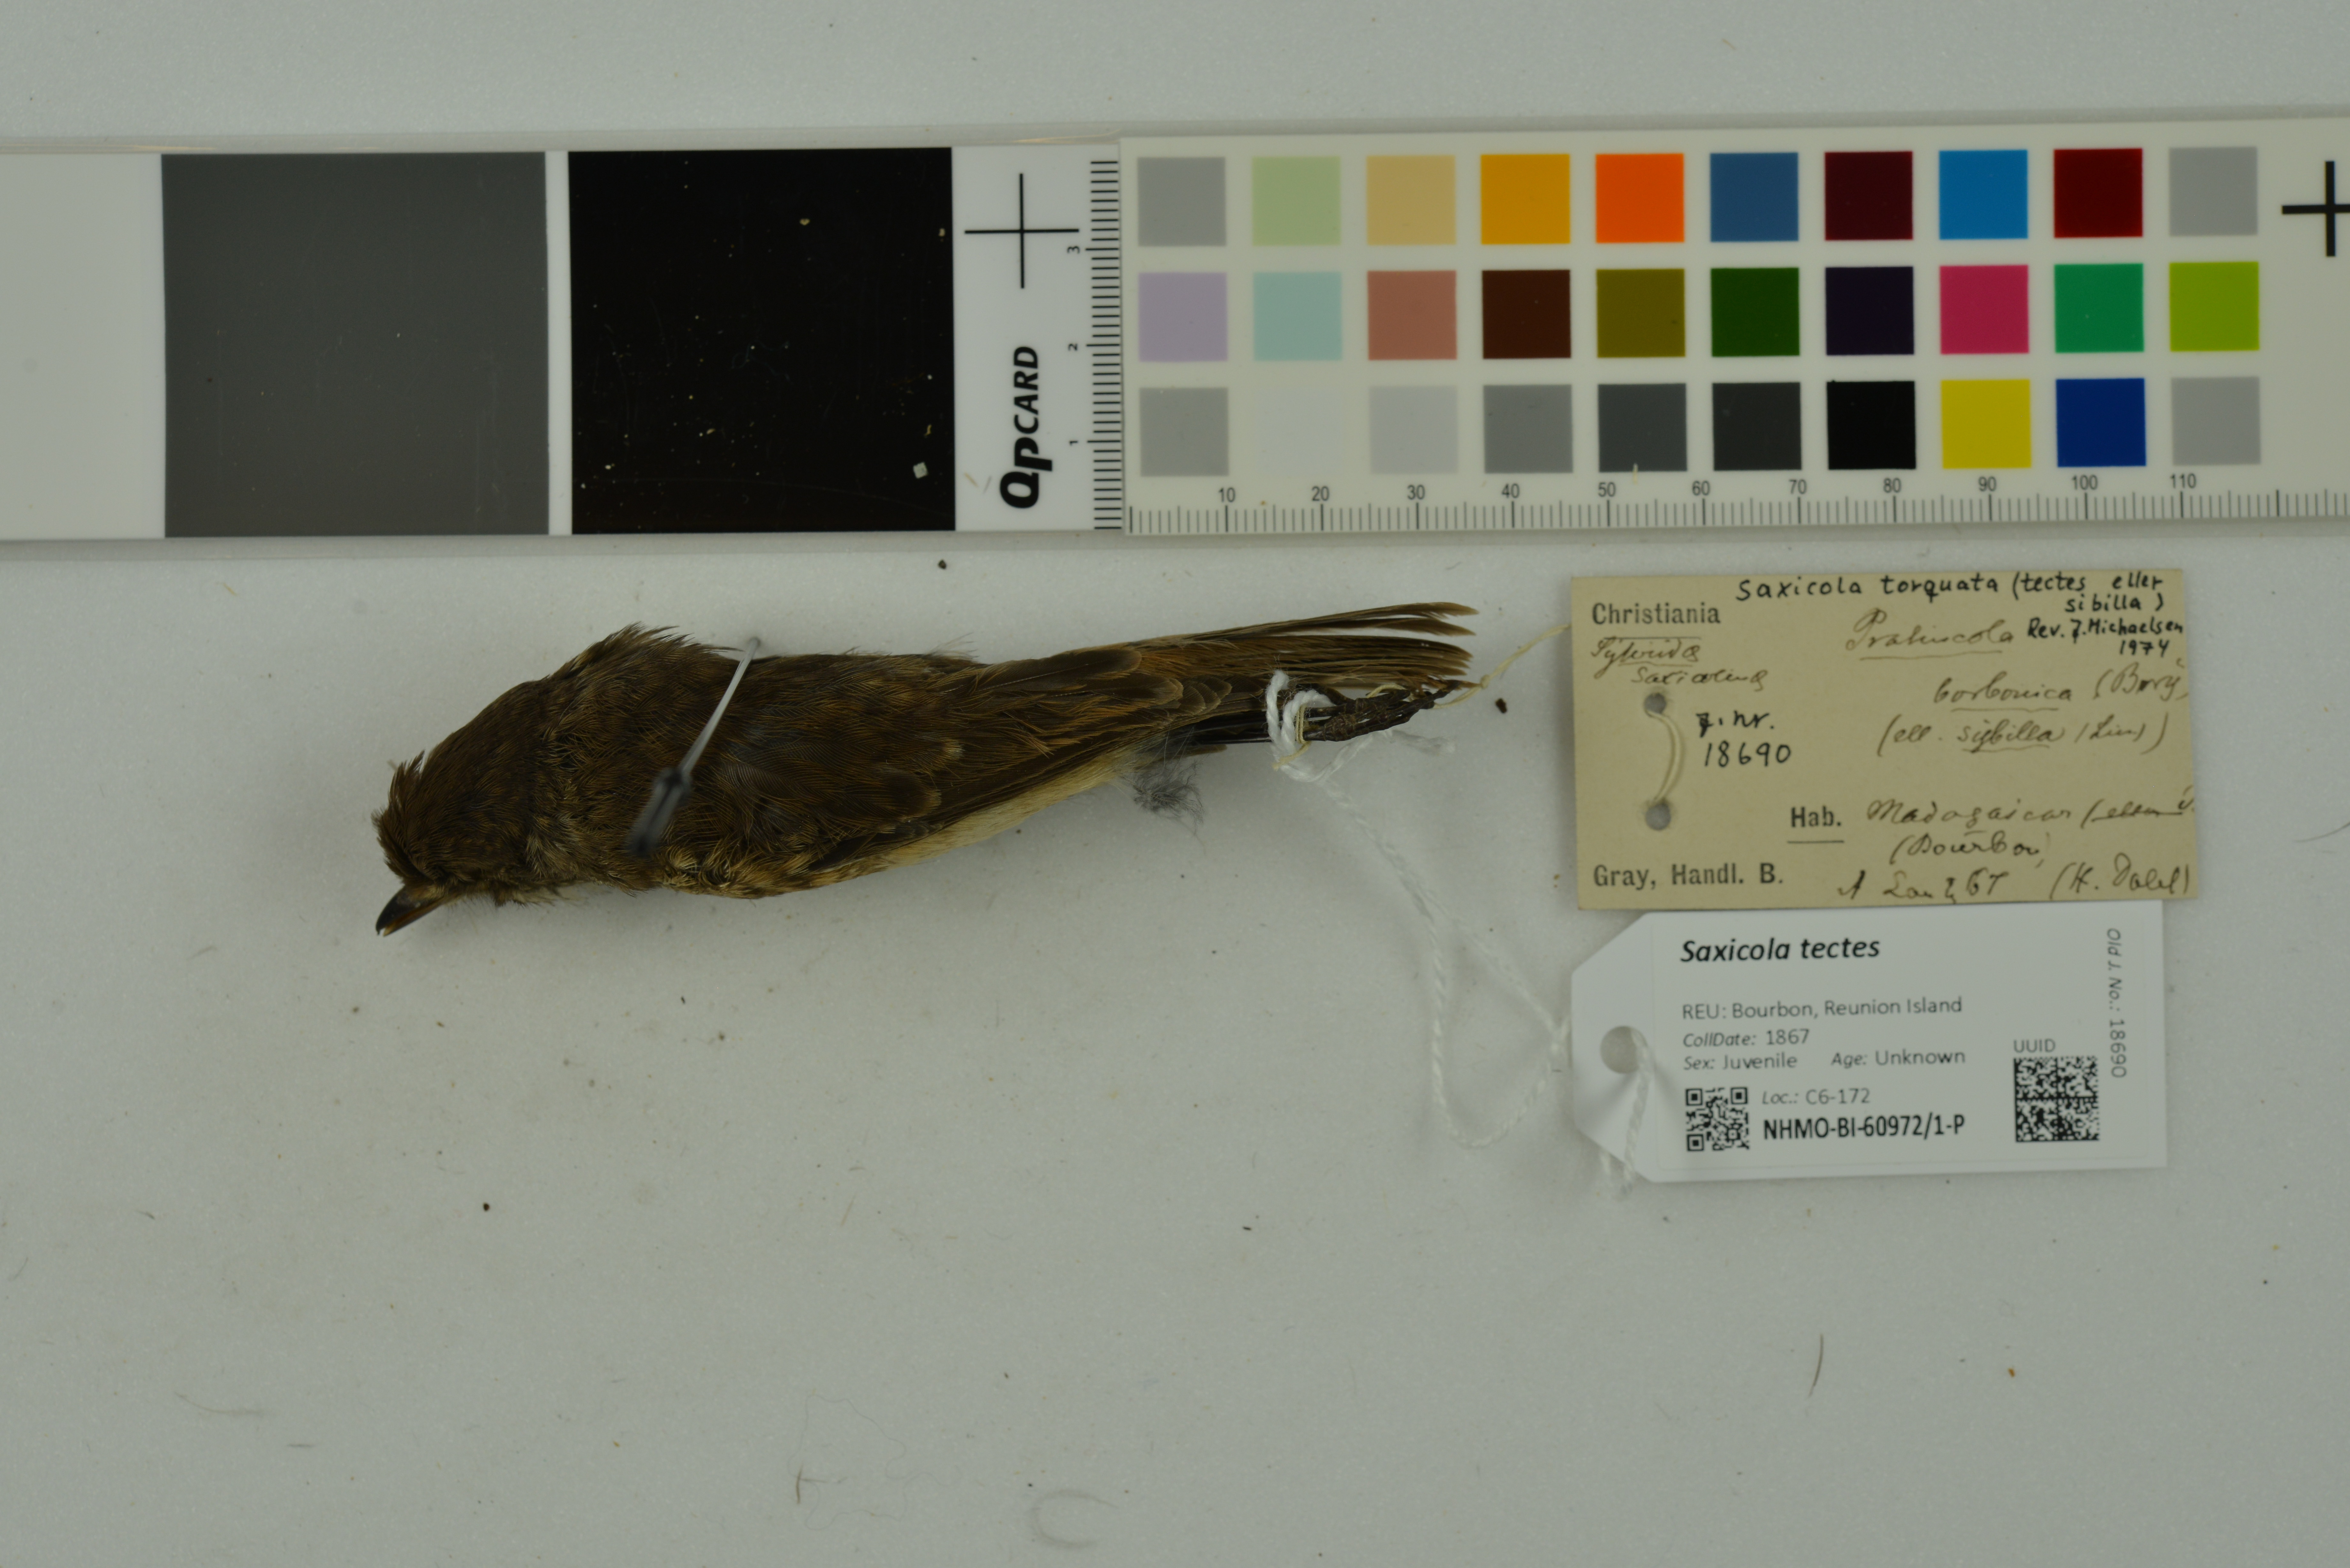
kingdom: Animalia
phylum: Chordata
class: Aves
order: Passeriformes
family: Muscicapidae
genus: Saxicola
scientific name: Saxicola tectes
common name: Reunion stonechat
